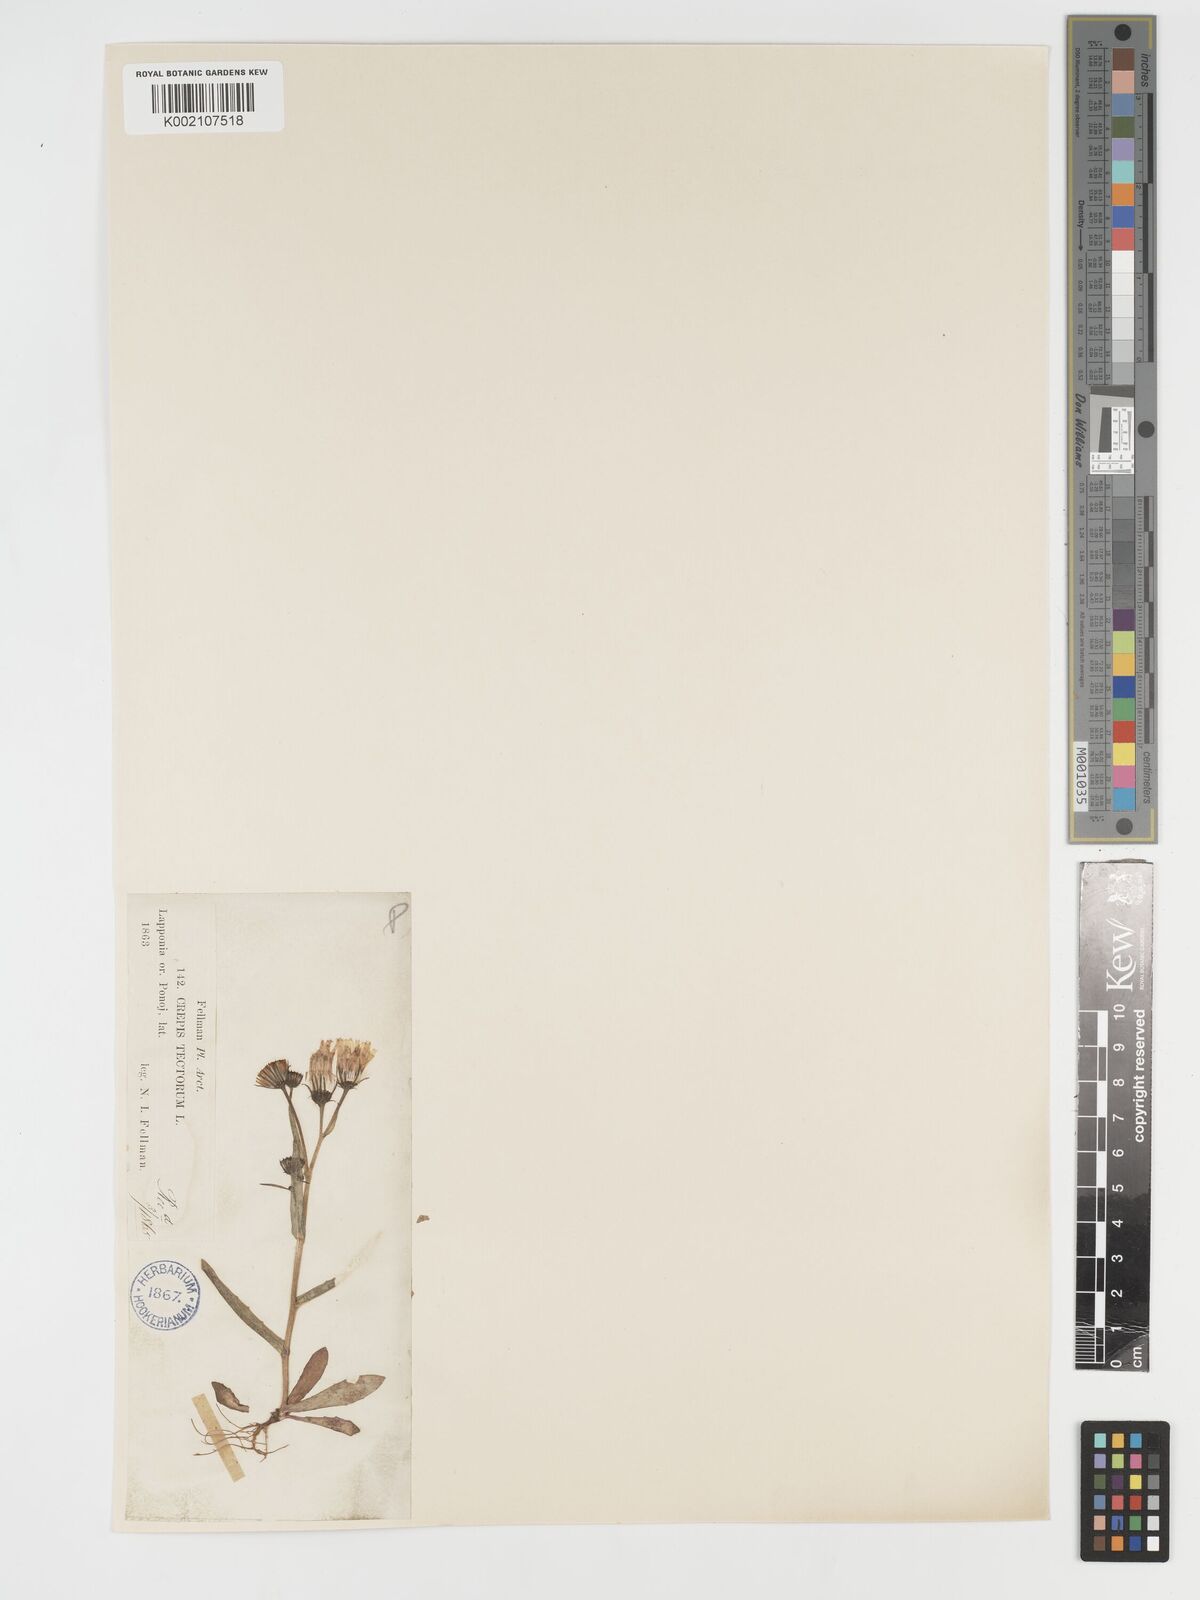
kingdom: Plantae
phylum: Tracheophyta
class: Magnoliopsida
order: Asterales
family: Asteraceae
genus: Crepis
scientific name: Crepis tectorum
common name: Narrow-leaved hawk's-beard
